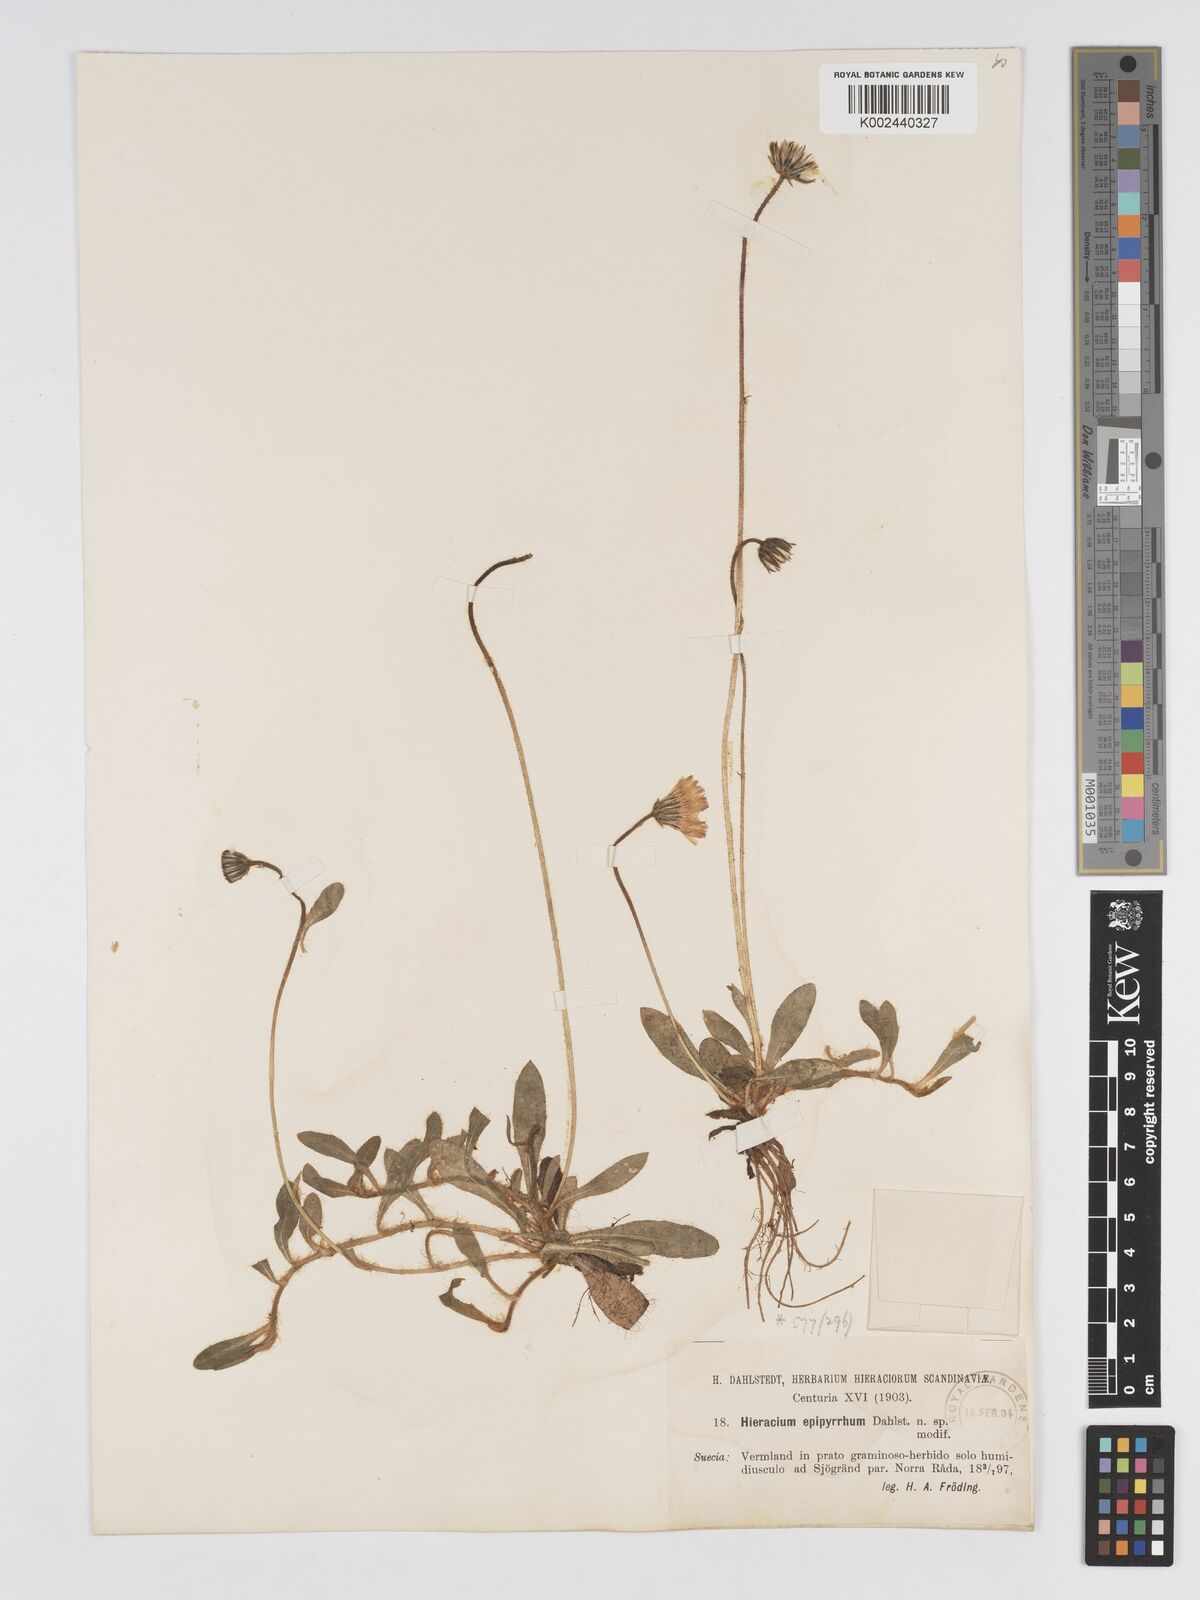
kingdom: Plantae
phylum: Tracheophyta
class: Magnoliopsida
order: Asterales
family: Asteraceae
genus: Pilosella
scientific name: Pilosella officinarum
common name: Mouse-ear hawkweed
